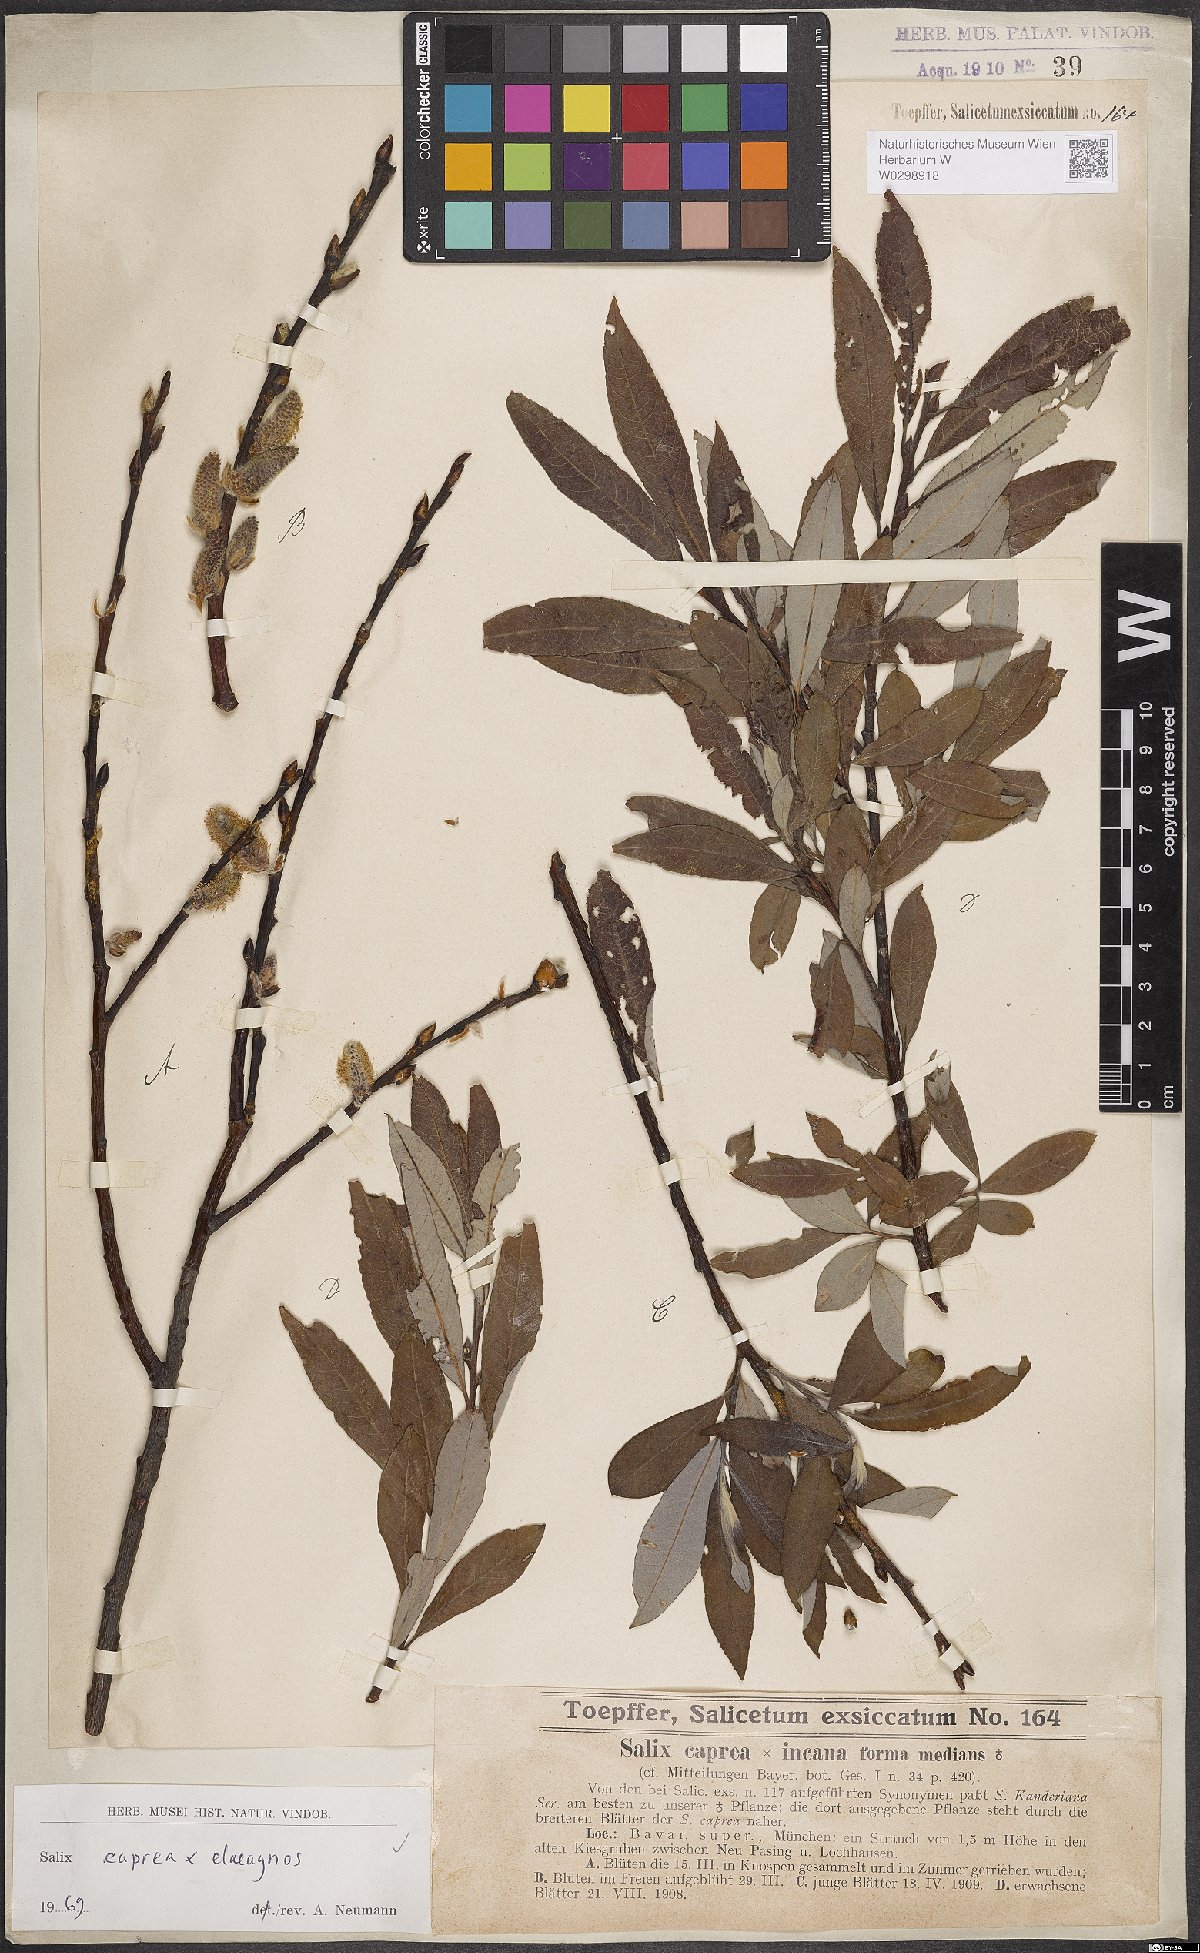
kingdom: Plantae
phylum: Tracheophyta
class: Magnoliopsida
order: Malpighiales
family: Salicaceae
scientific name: Salicaceae
